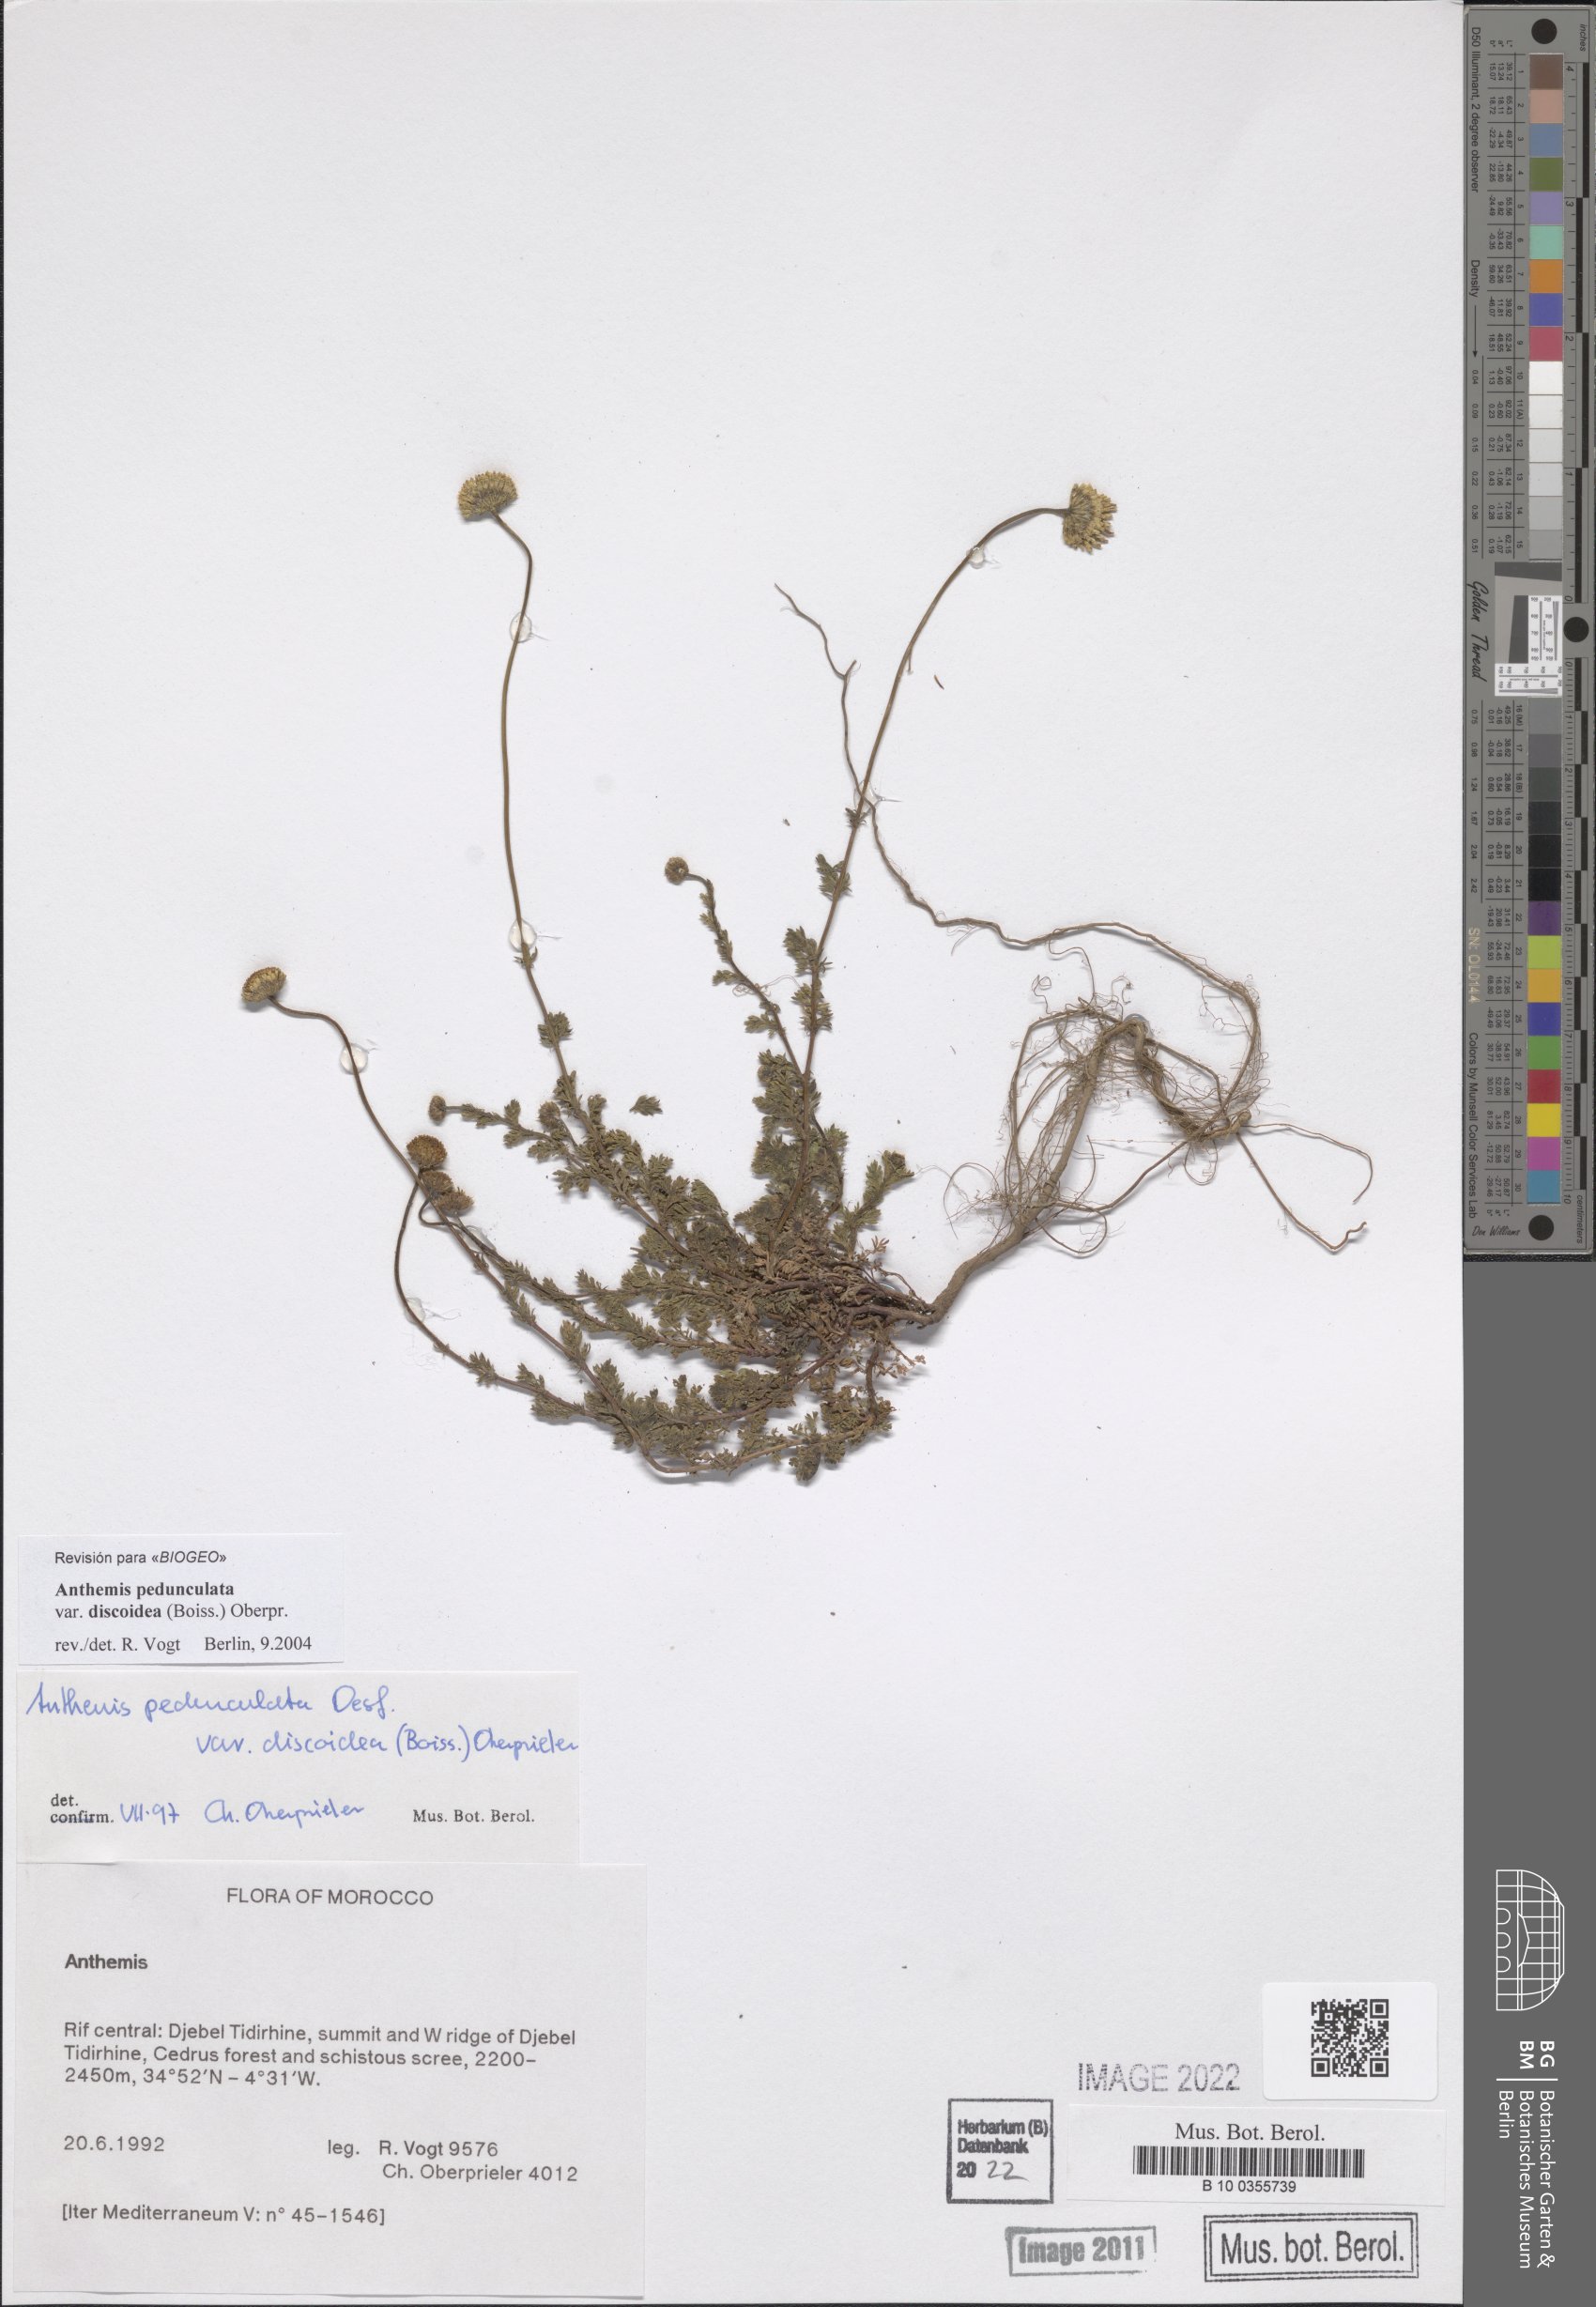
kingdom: Plantae
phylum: Tracheophyta
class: Magnoliopsida
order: Asterales
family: Asteraceae
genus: Anthemis
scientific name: Anthemis pedunculata
